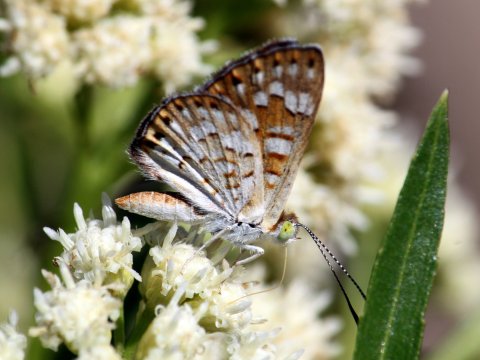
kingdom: Animalia
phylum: Arthropoda
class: Insecta
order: Lepidoptera
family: Riodinidae
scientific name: Riodinidae
